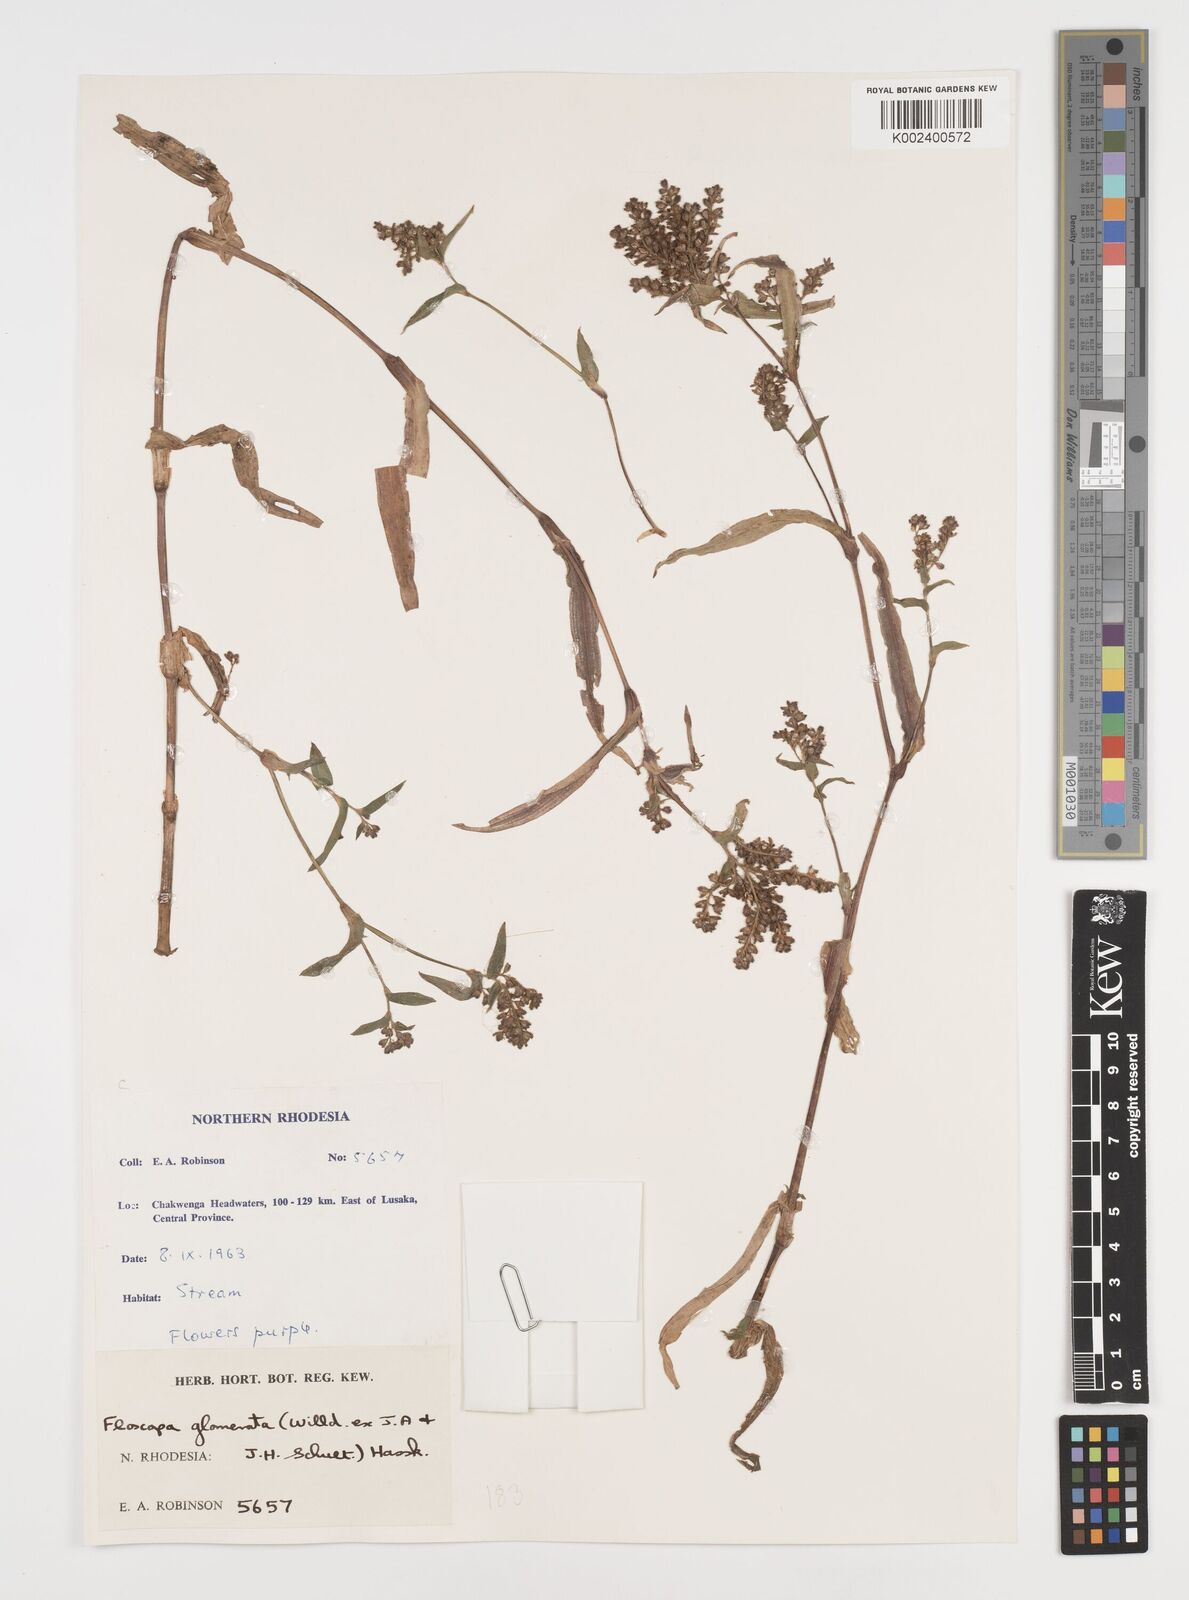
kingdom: Plantae
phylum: Tracheophyta
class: Liliopsida
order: Commelinales
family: Commelinaceae
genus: Floscopa
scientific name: Floscopa glomerata
